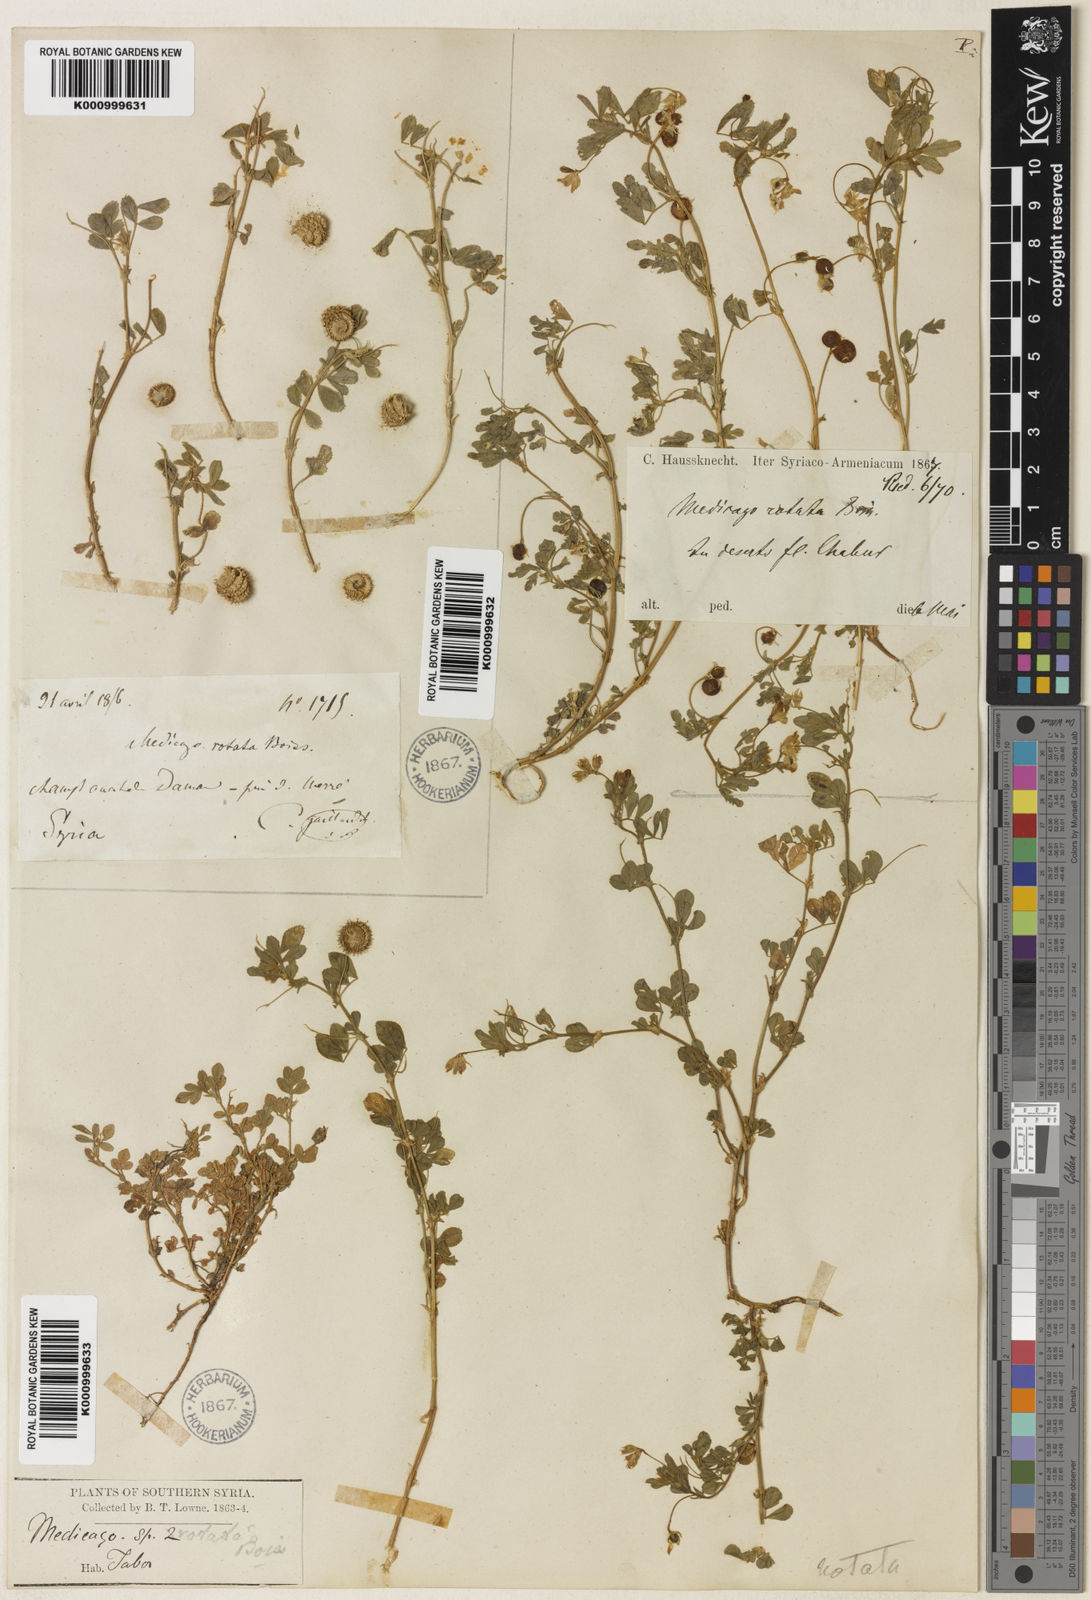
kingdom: Plantae
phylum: Tracheophyta
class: Magnoliopsida
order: Fabales
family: Fabaceae
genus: Medicago
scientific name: Medicago rotata
